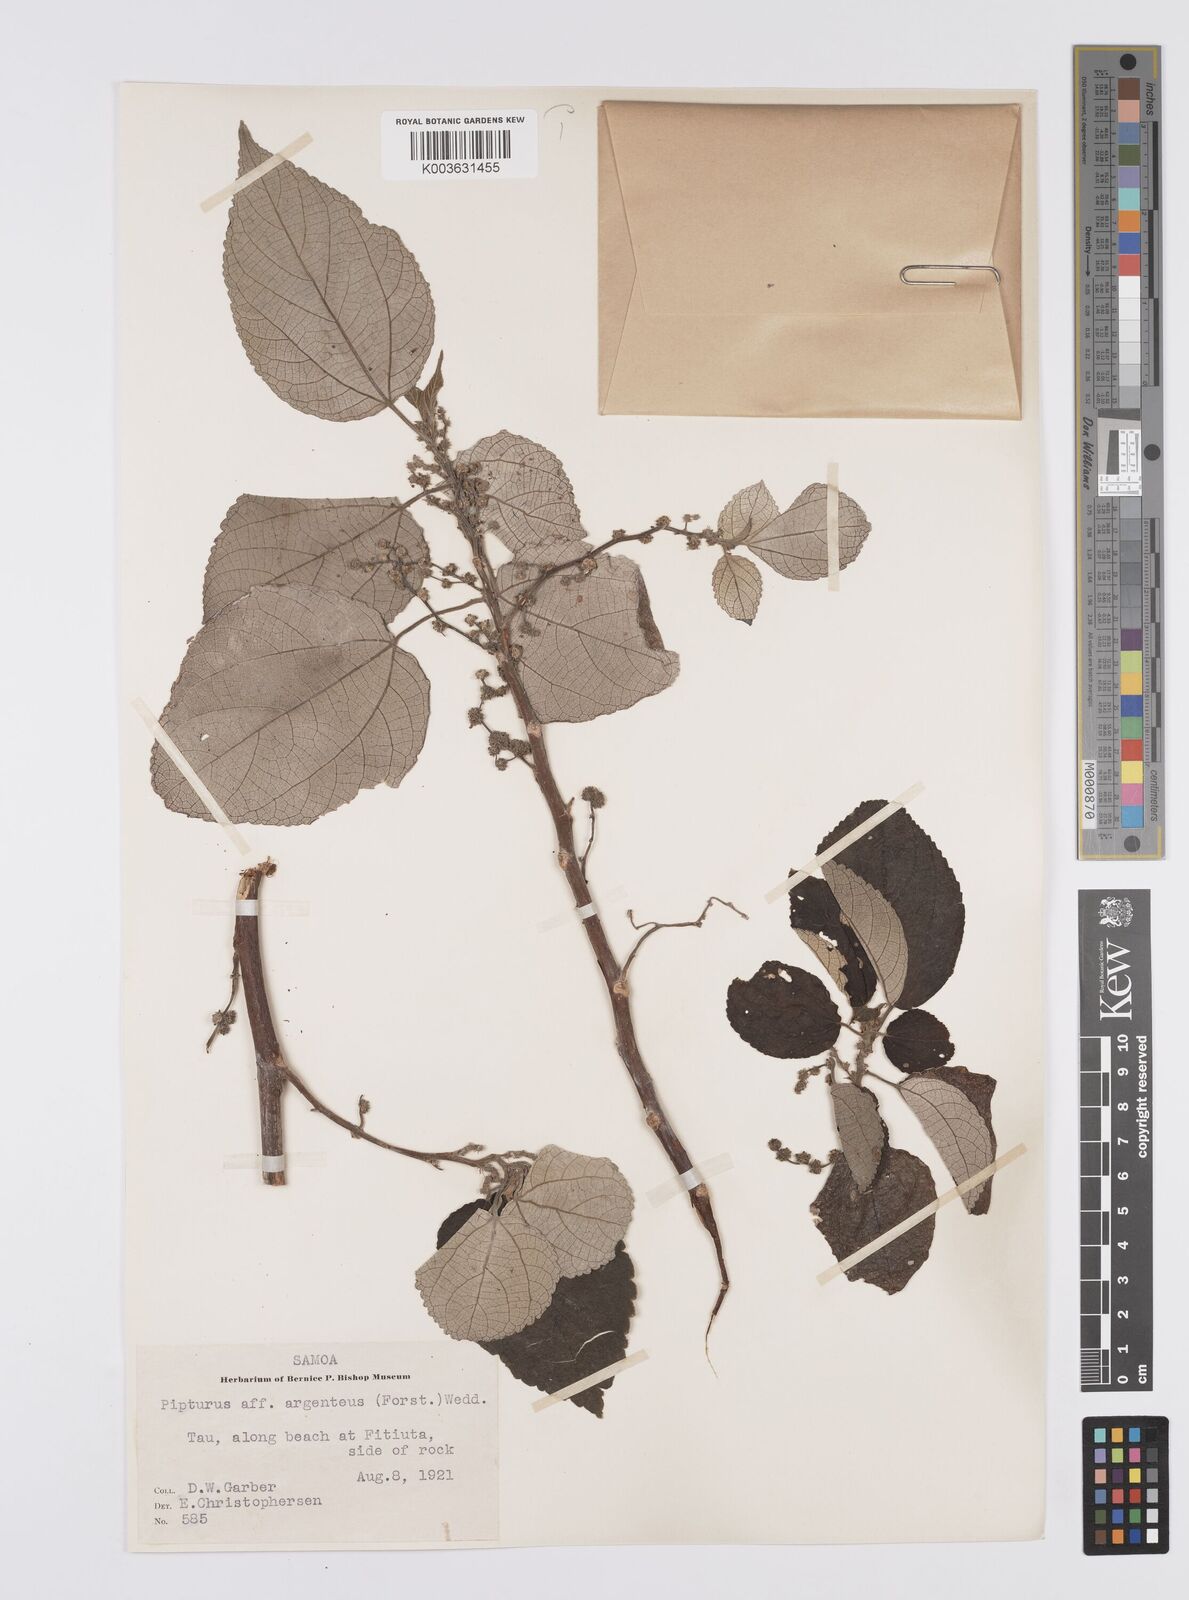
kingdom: Plantae
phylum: Tracheophyta
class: Magnoliopsida
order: Rosales
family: Urticaceae
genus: Pipturus
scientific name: Pipturus argenteus
